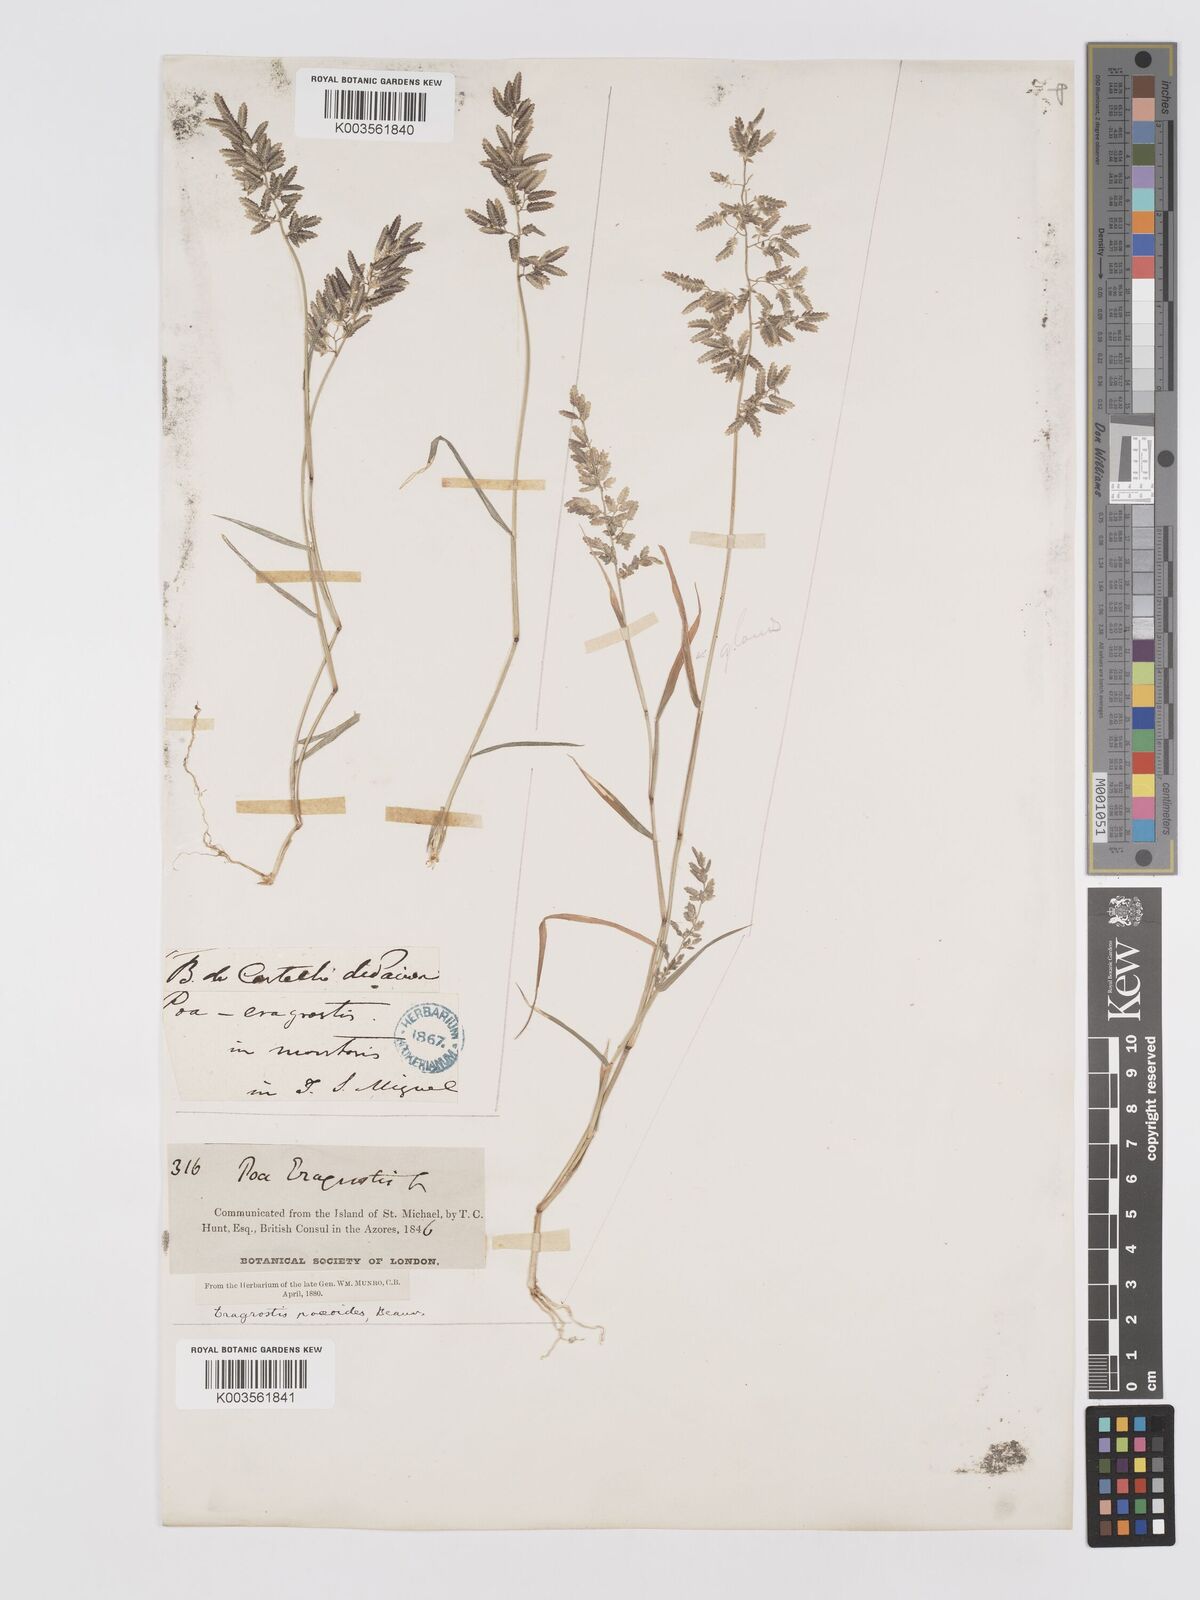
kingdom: Plantae
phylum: Tracheophyta
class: Liliopsida
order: Poales
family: Poaceae
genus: Eragrostis
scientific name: Eragrostis cilianensis
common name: Stinkgrass
